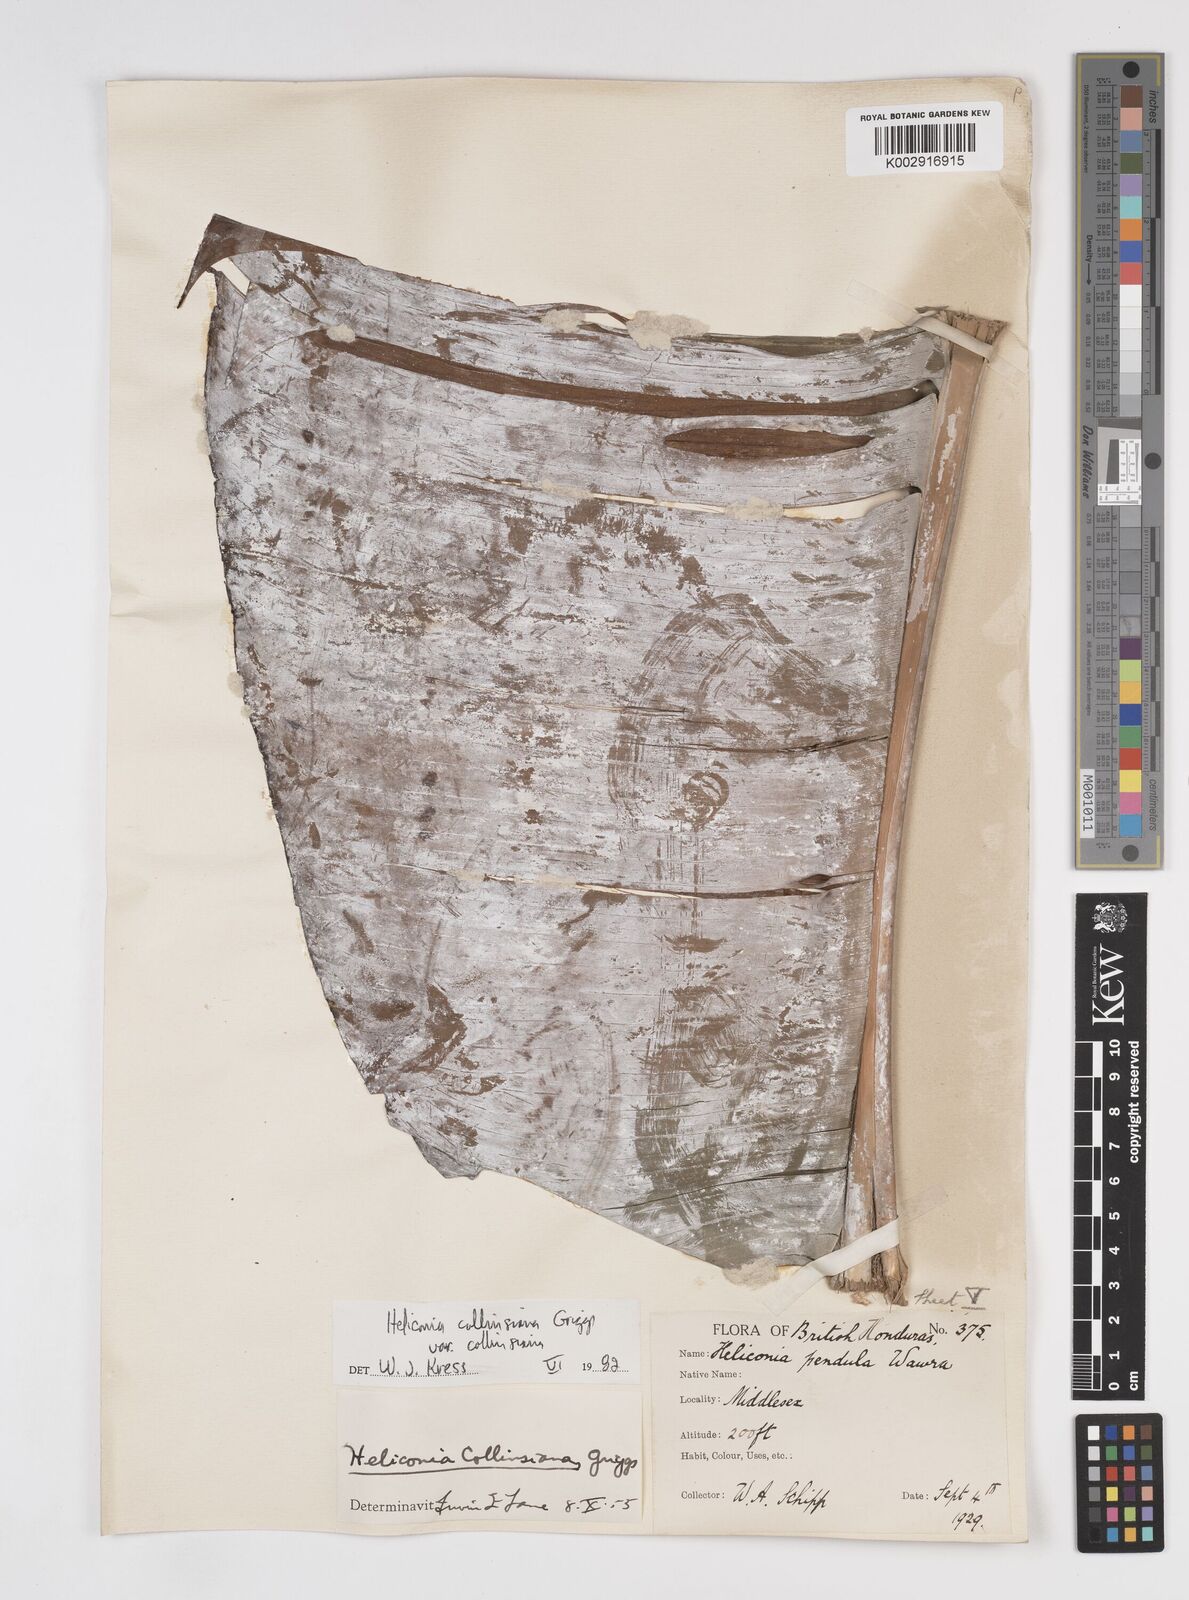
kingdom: Plantae
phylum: Tracheophyta
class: Liliopsida
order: Zingiberales
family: Heliconiaceae
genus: Heliconia
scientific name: Heliconia collinsiana
